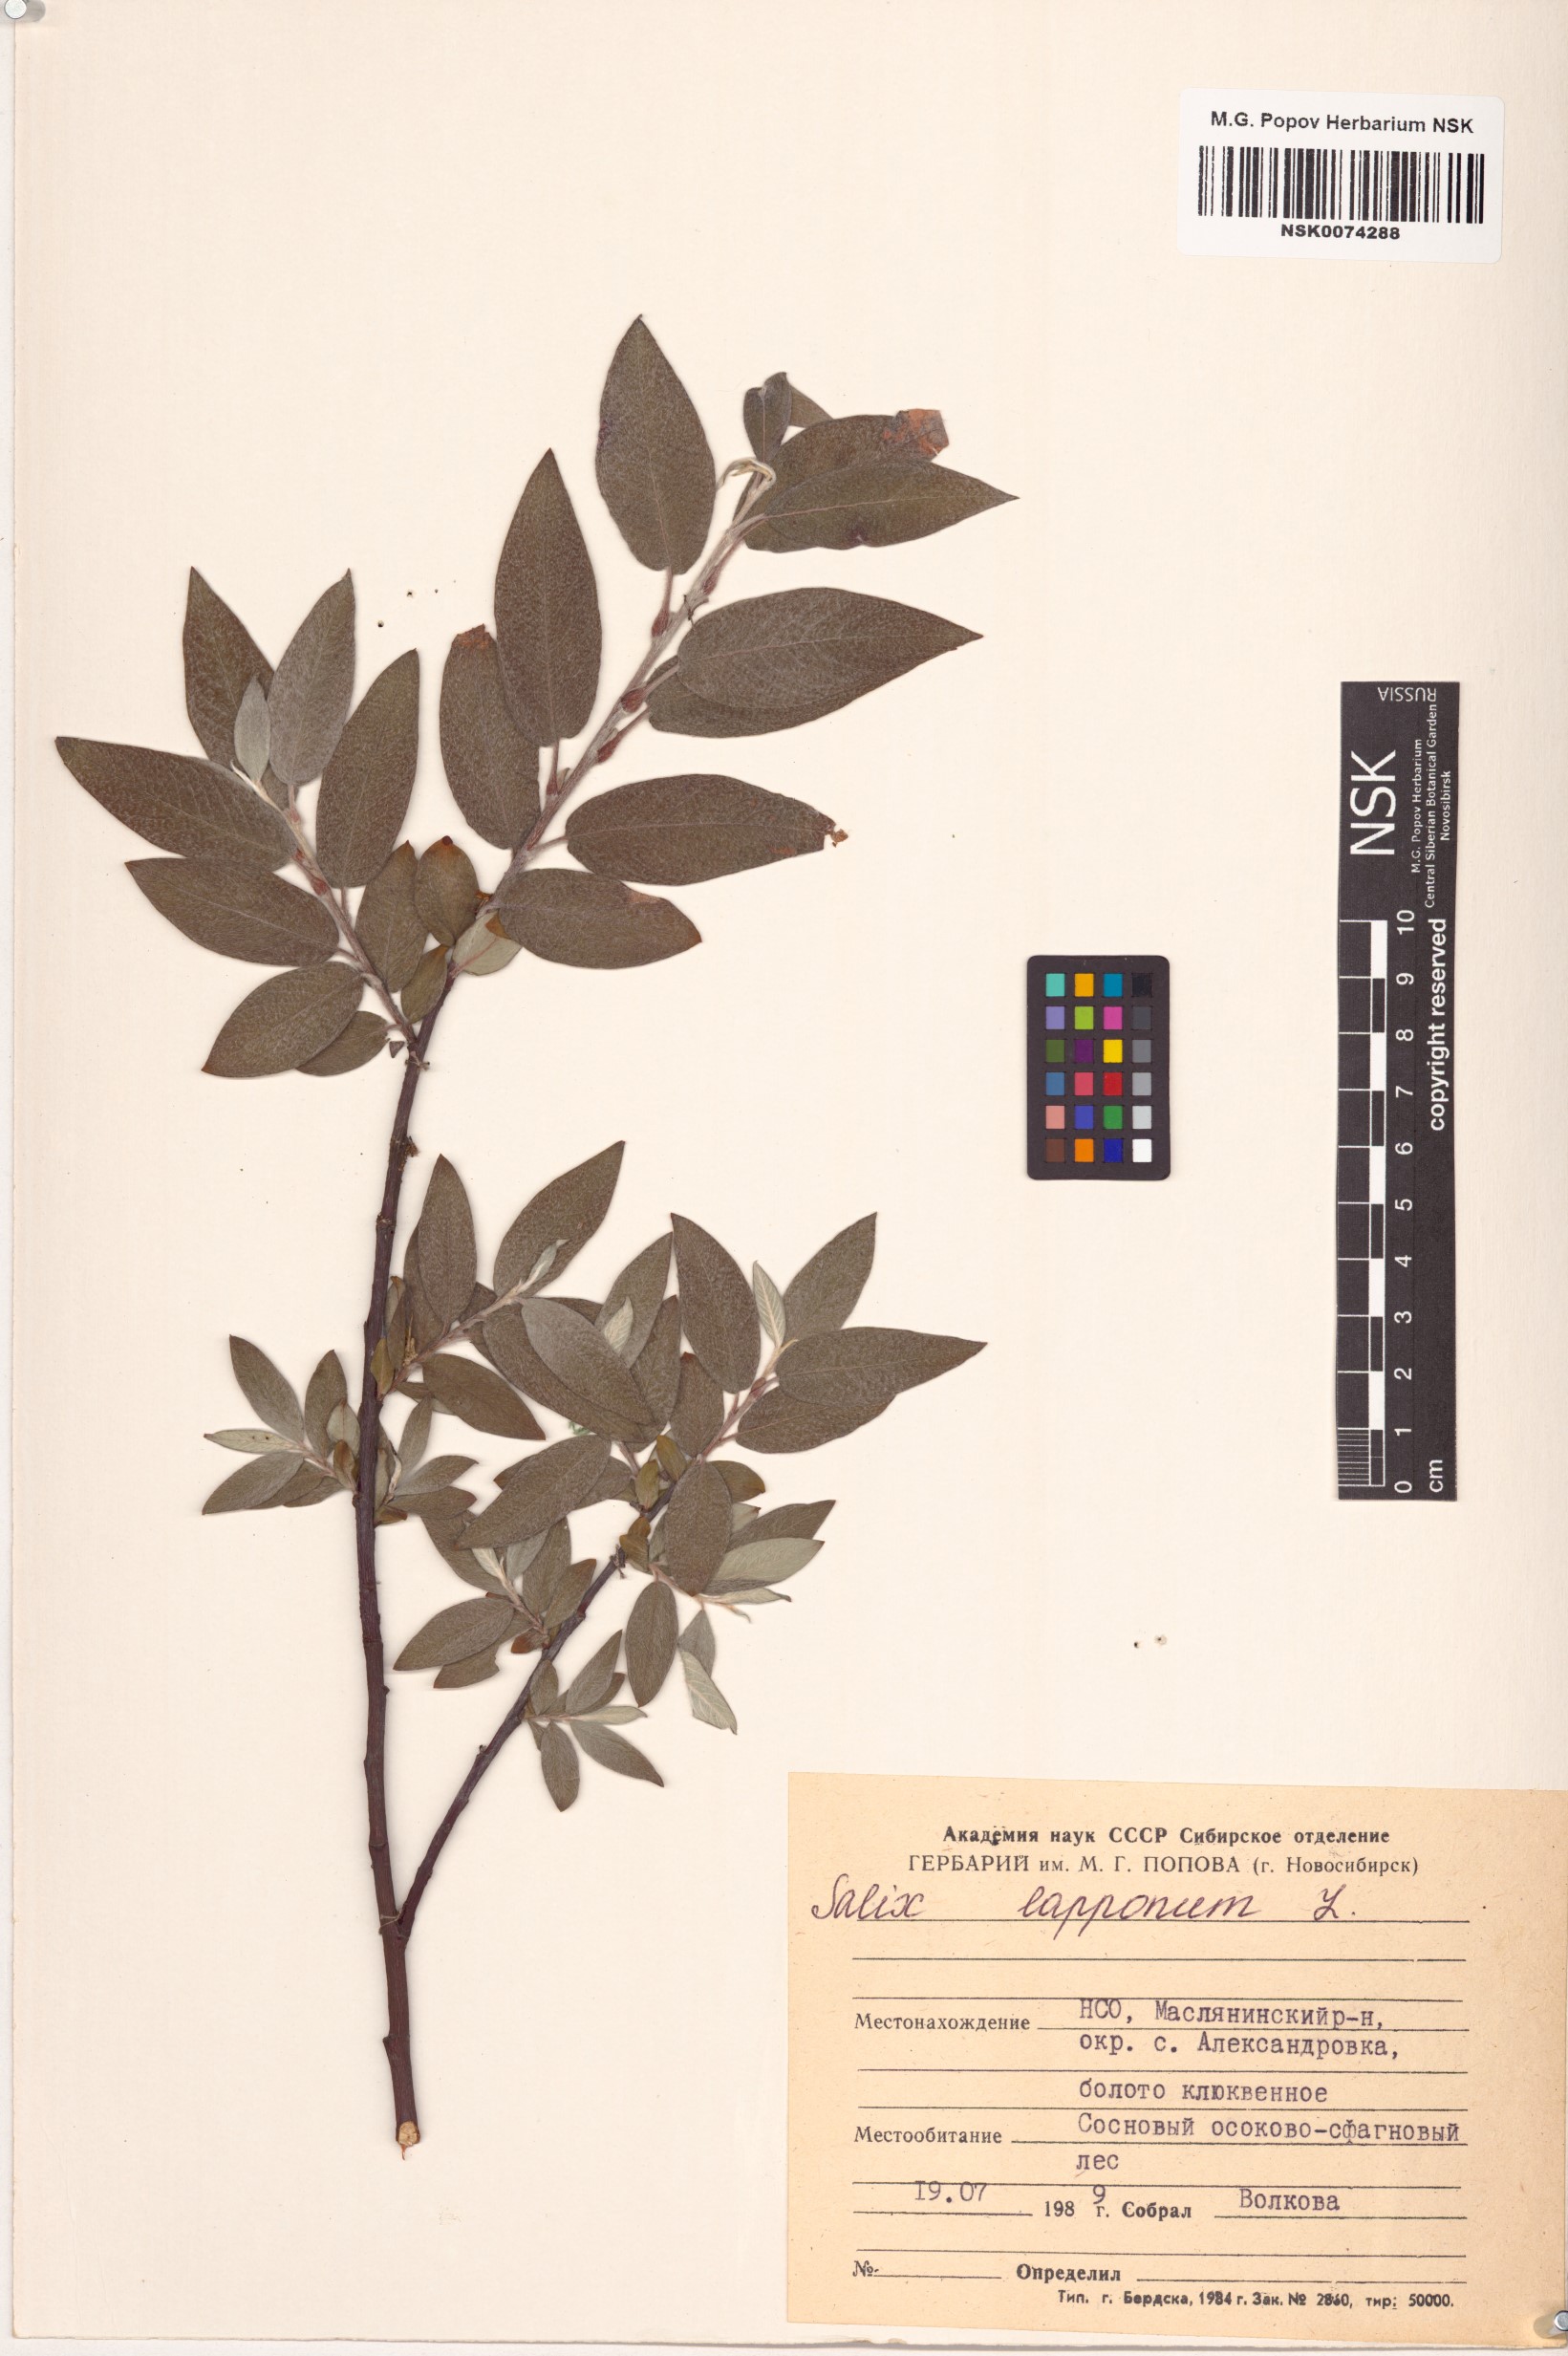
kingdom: Plantae
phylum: Tracheophyta
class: Magnoliopsida
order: Malpighiales
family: Salicaceae
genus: Salix
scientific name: Salix lapponum
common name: Downy willow
